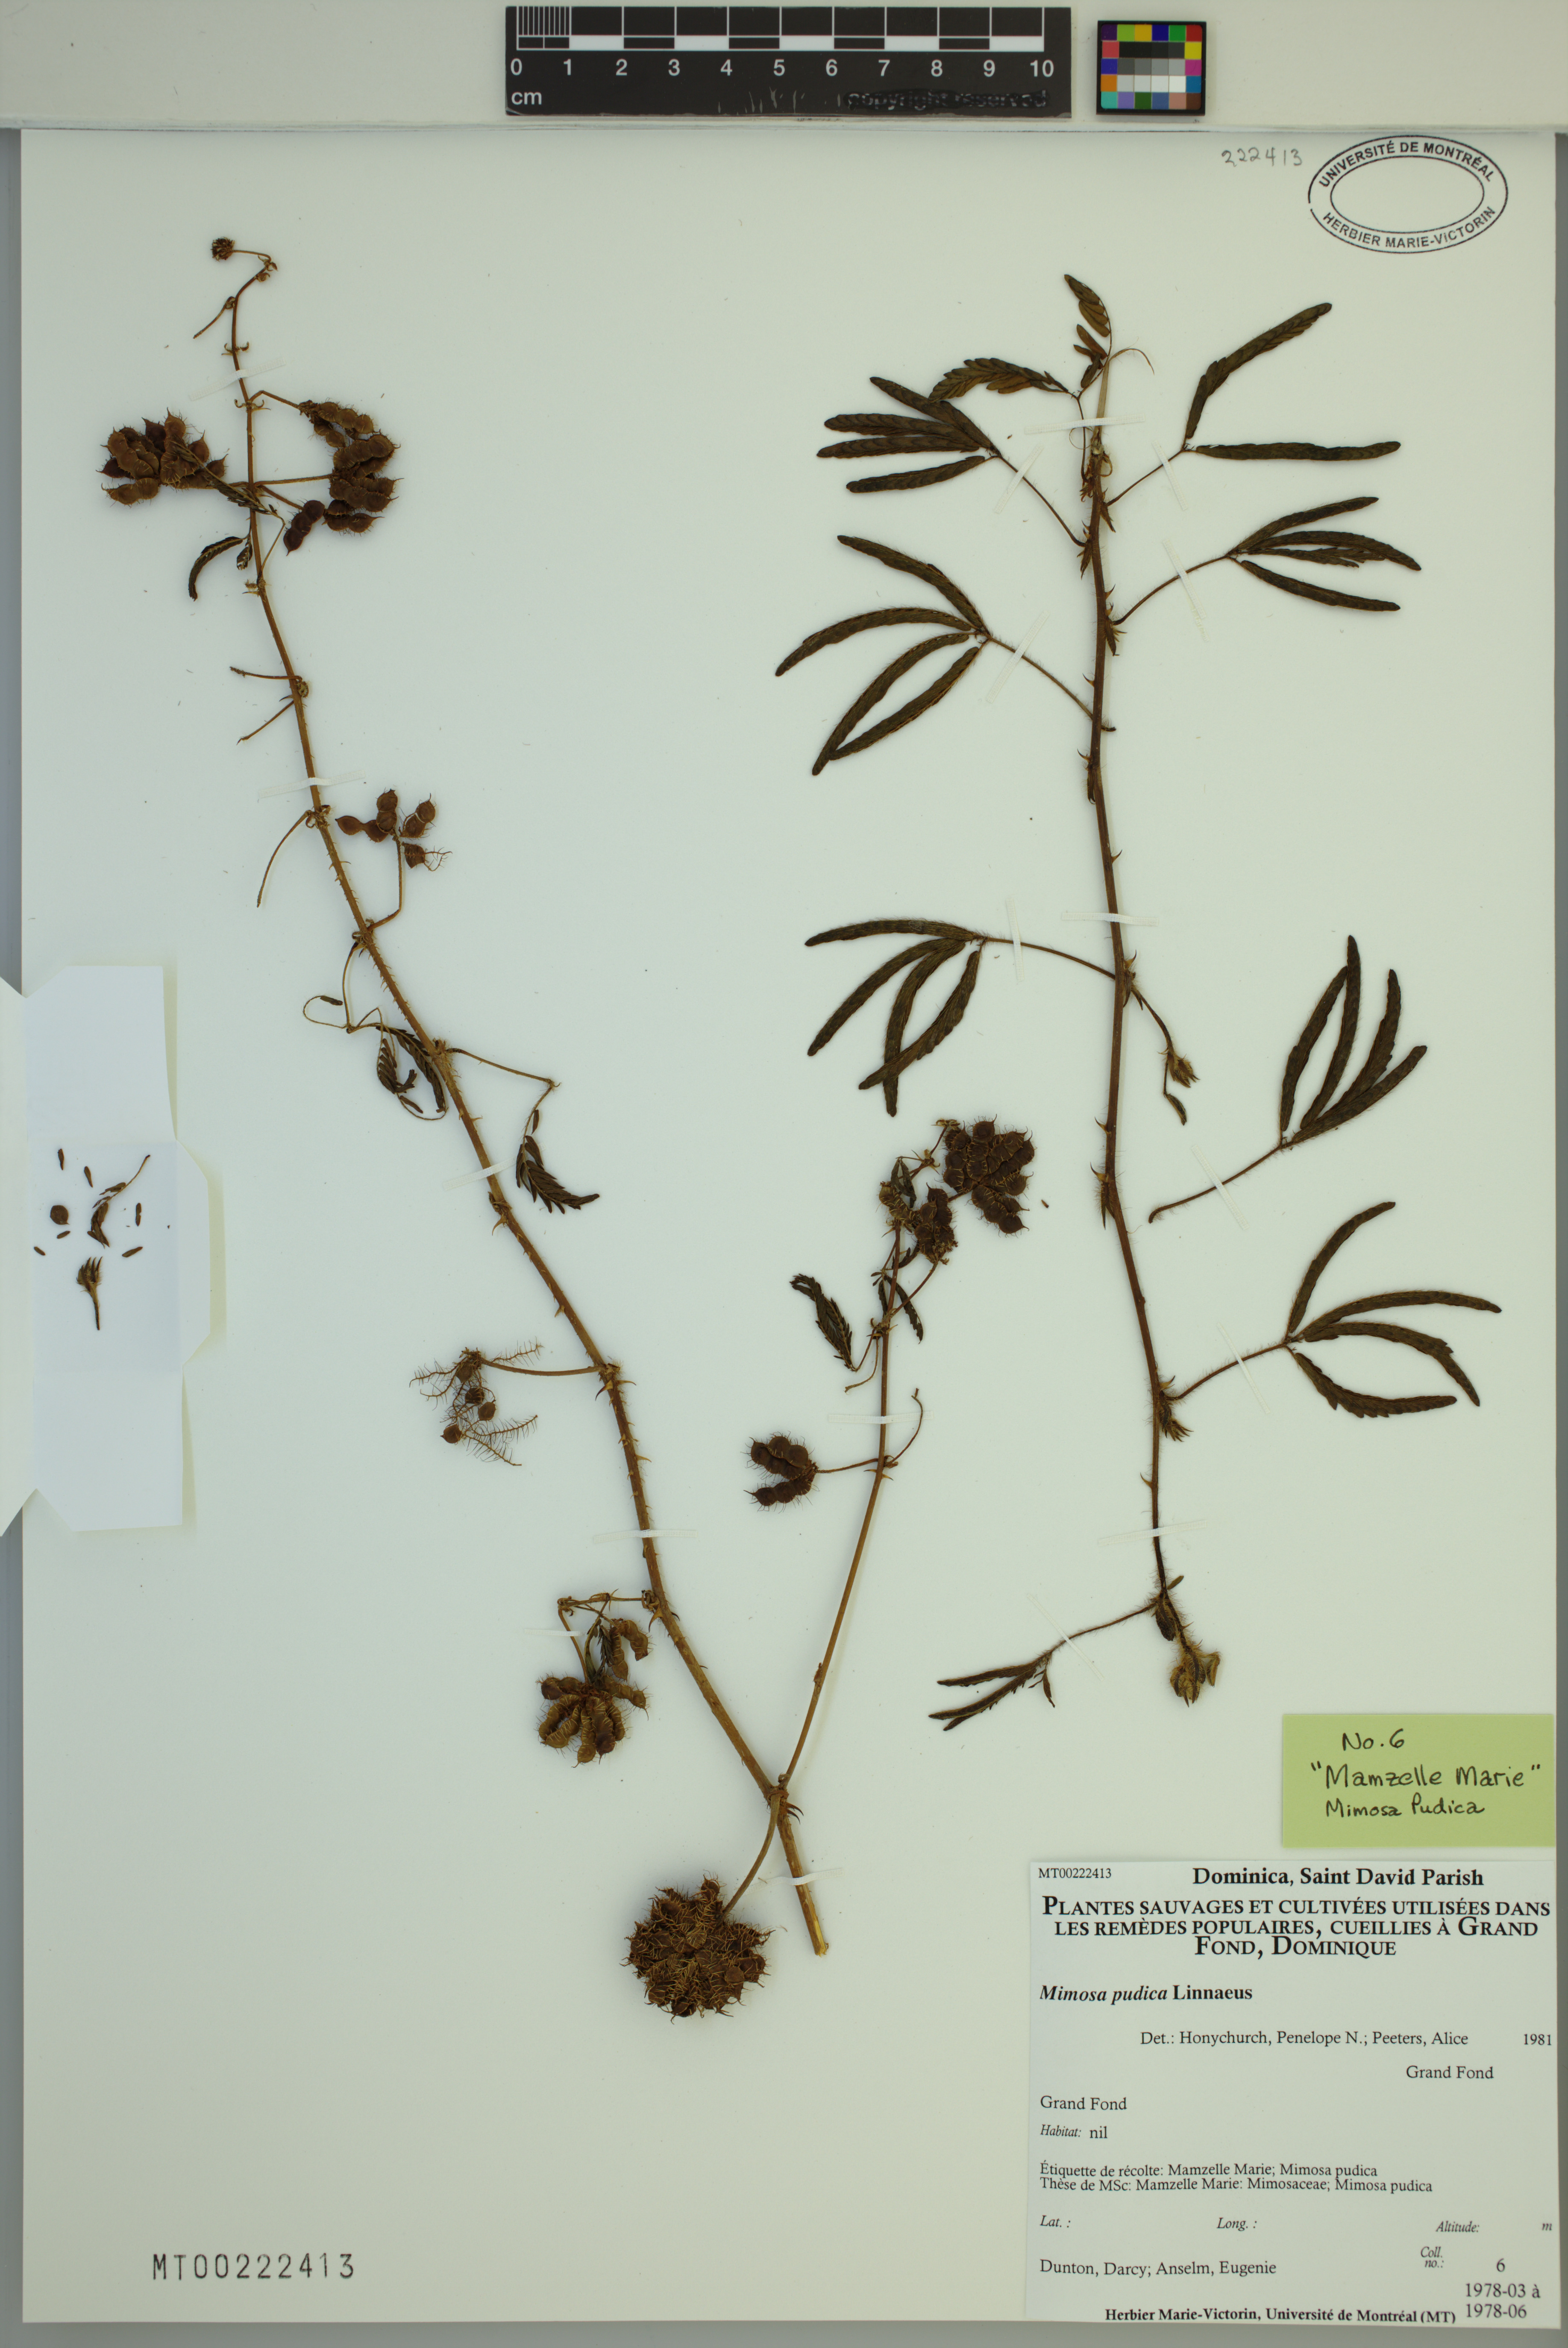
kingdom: Plantae
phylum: Tracheophyta
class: Magnoliopsida
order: Fabales
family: Fabaceae
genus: Mimosa
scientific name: Mimosa pudica
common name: Sensitive plant
